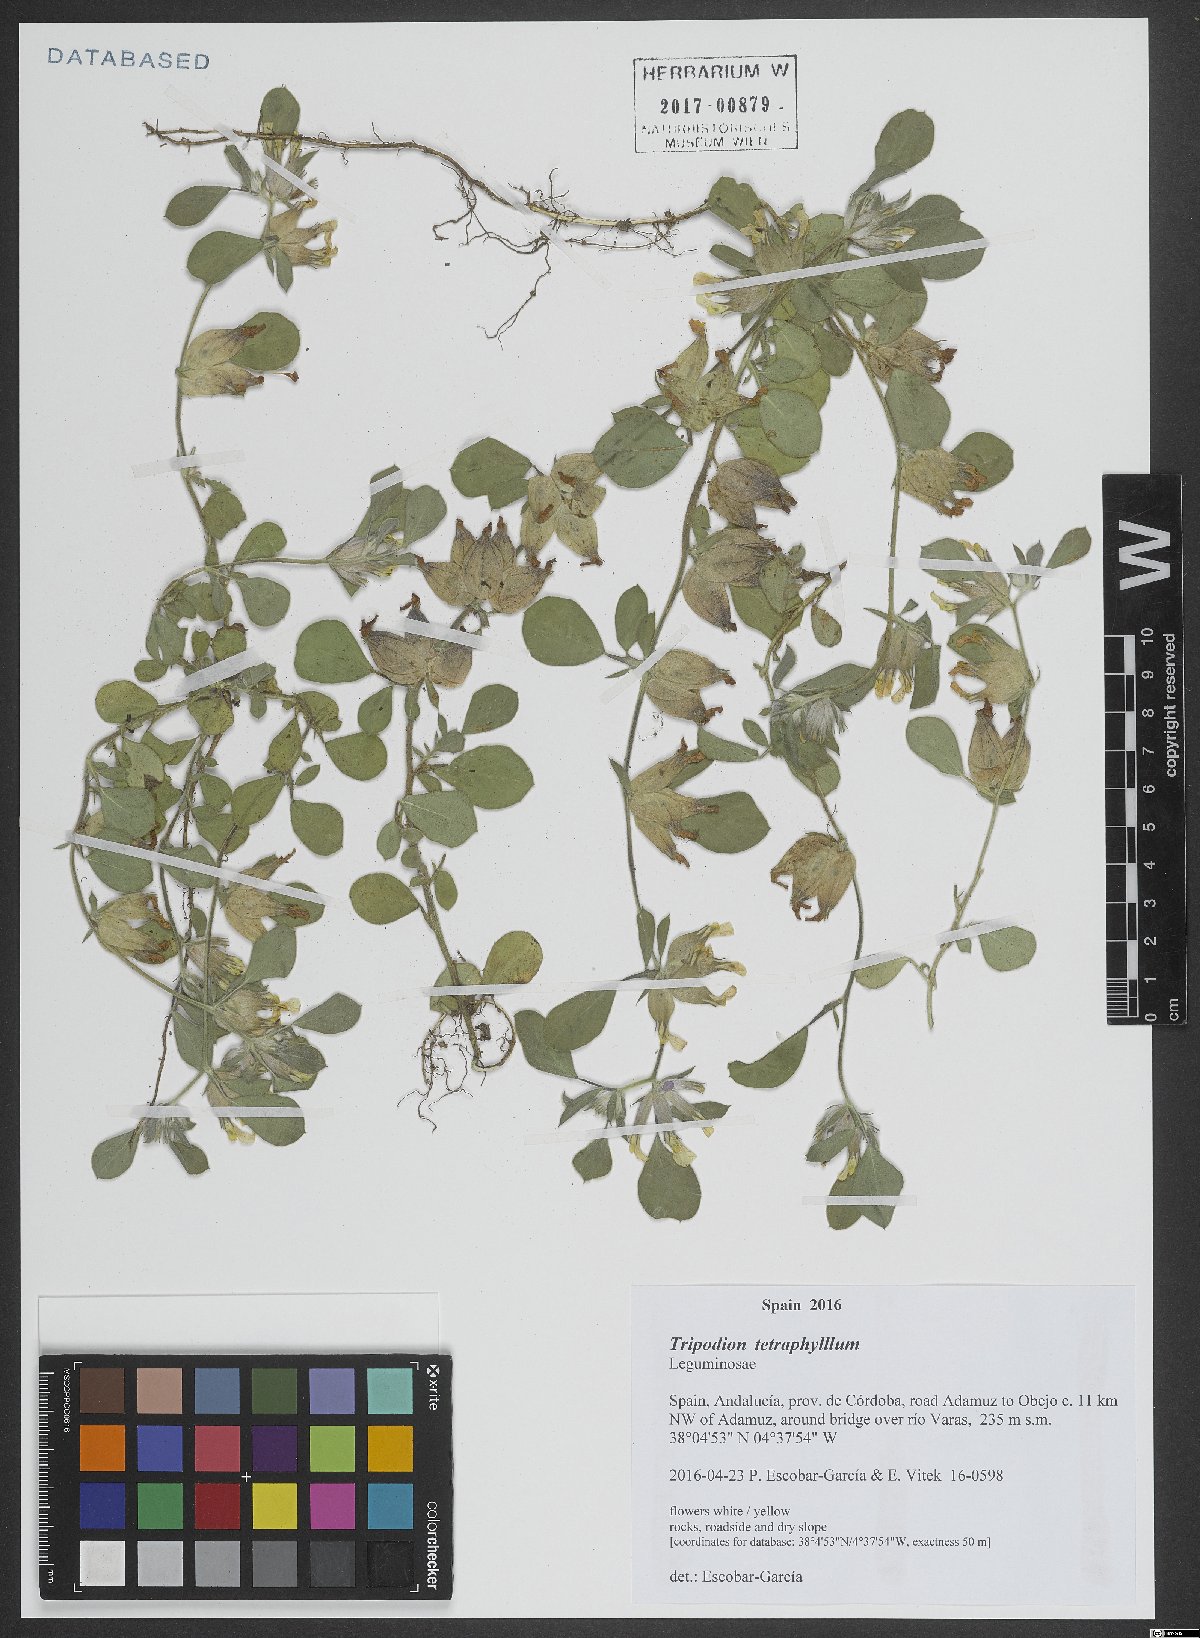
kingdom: Plantae
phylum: Tracheophyta
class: Magnoliopsida
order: Fabales
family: Fabaceae
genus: Tripodion
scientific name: Tripodion tetraphyllum
